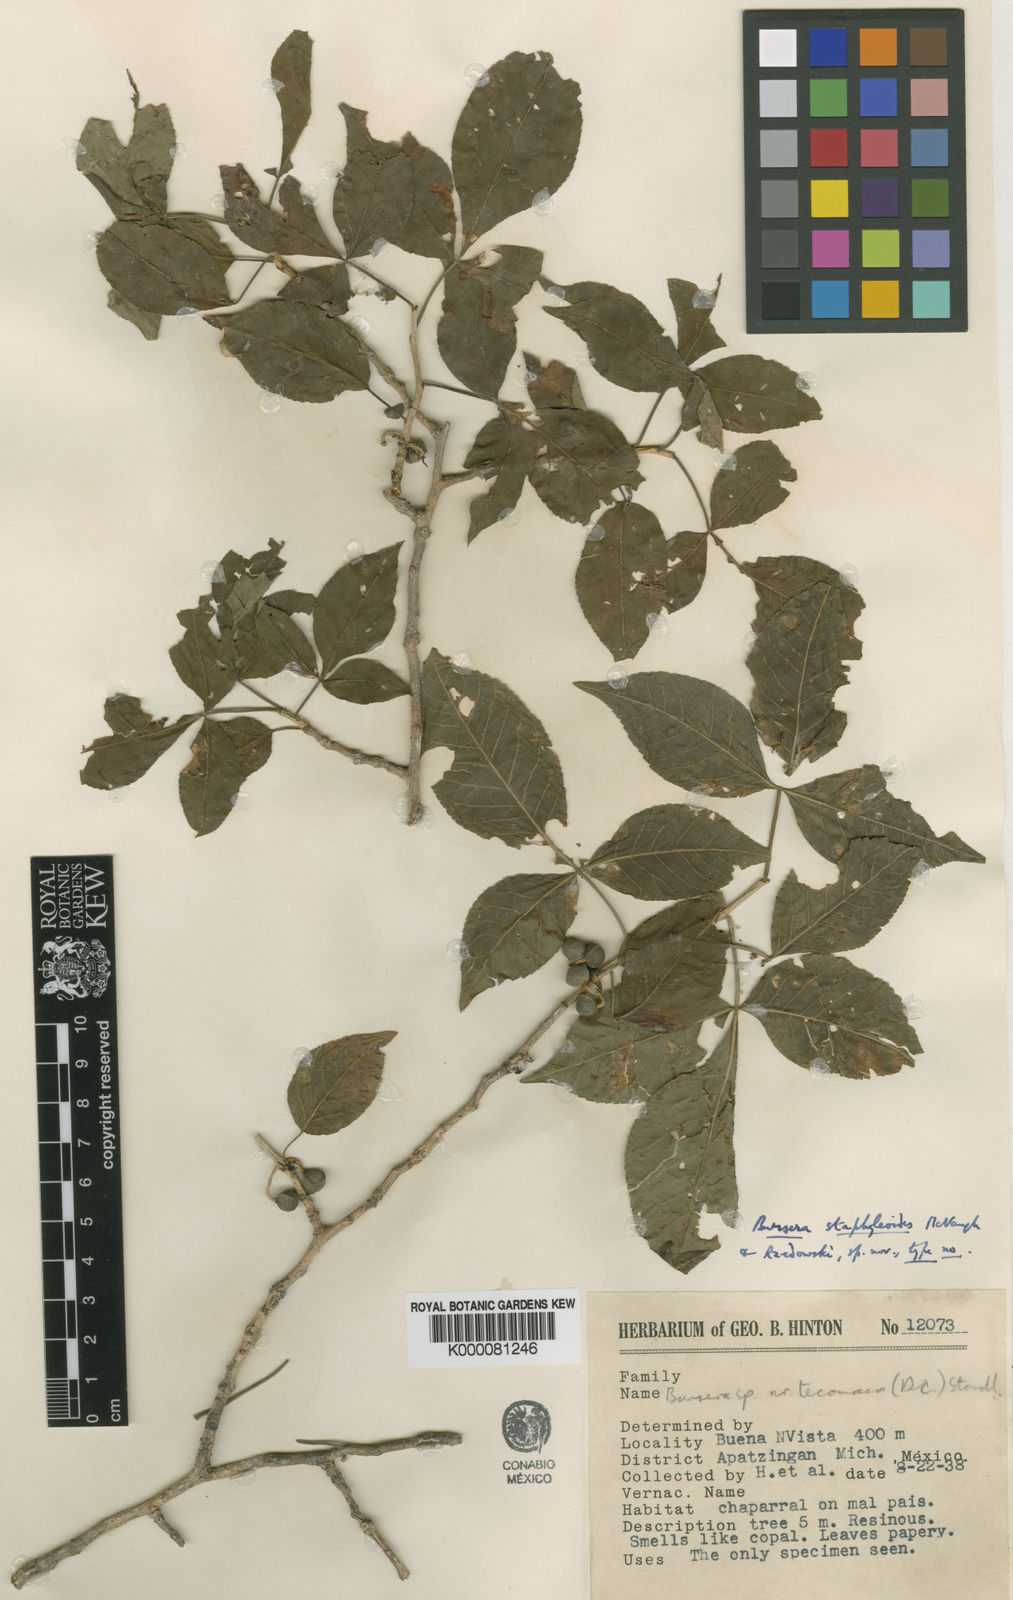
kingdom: Plantae
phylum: Tracheophyta
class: Magnoliopsida
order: Sapindales
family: Burseraceae
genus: Bursera
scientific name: Bursera staphyleoides
